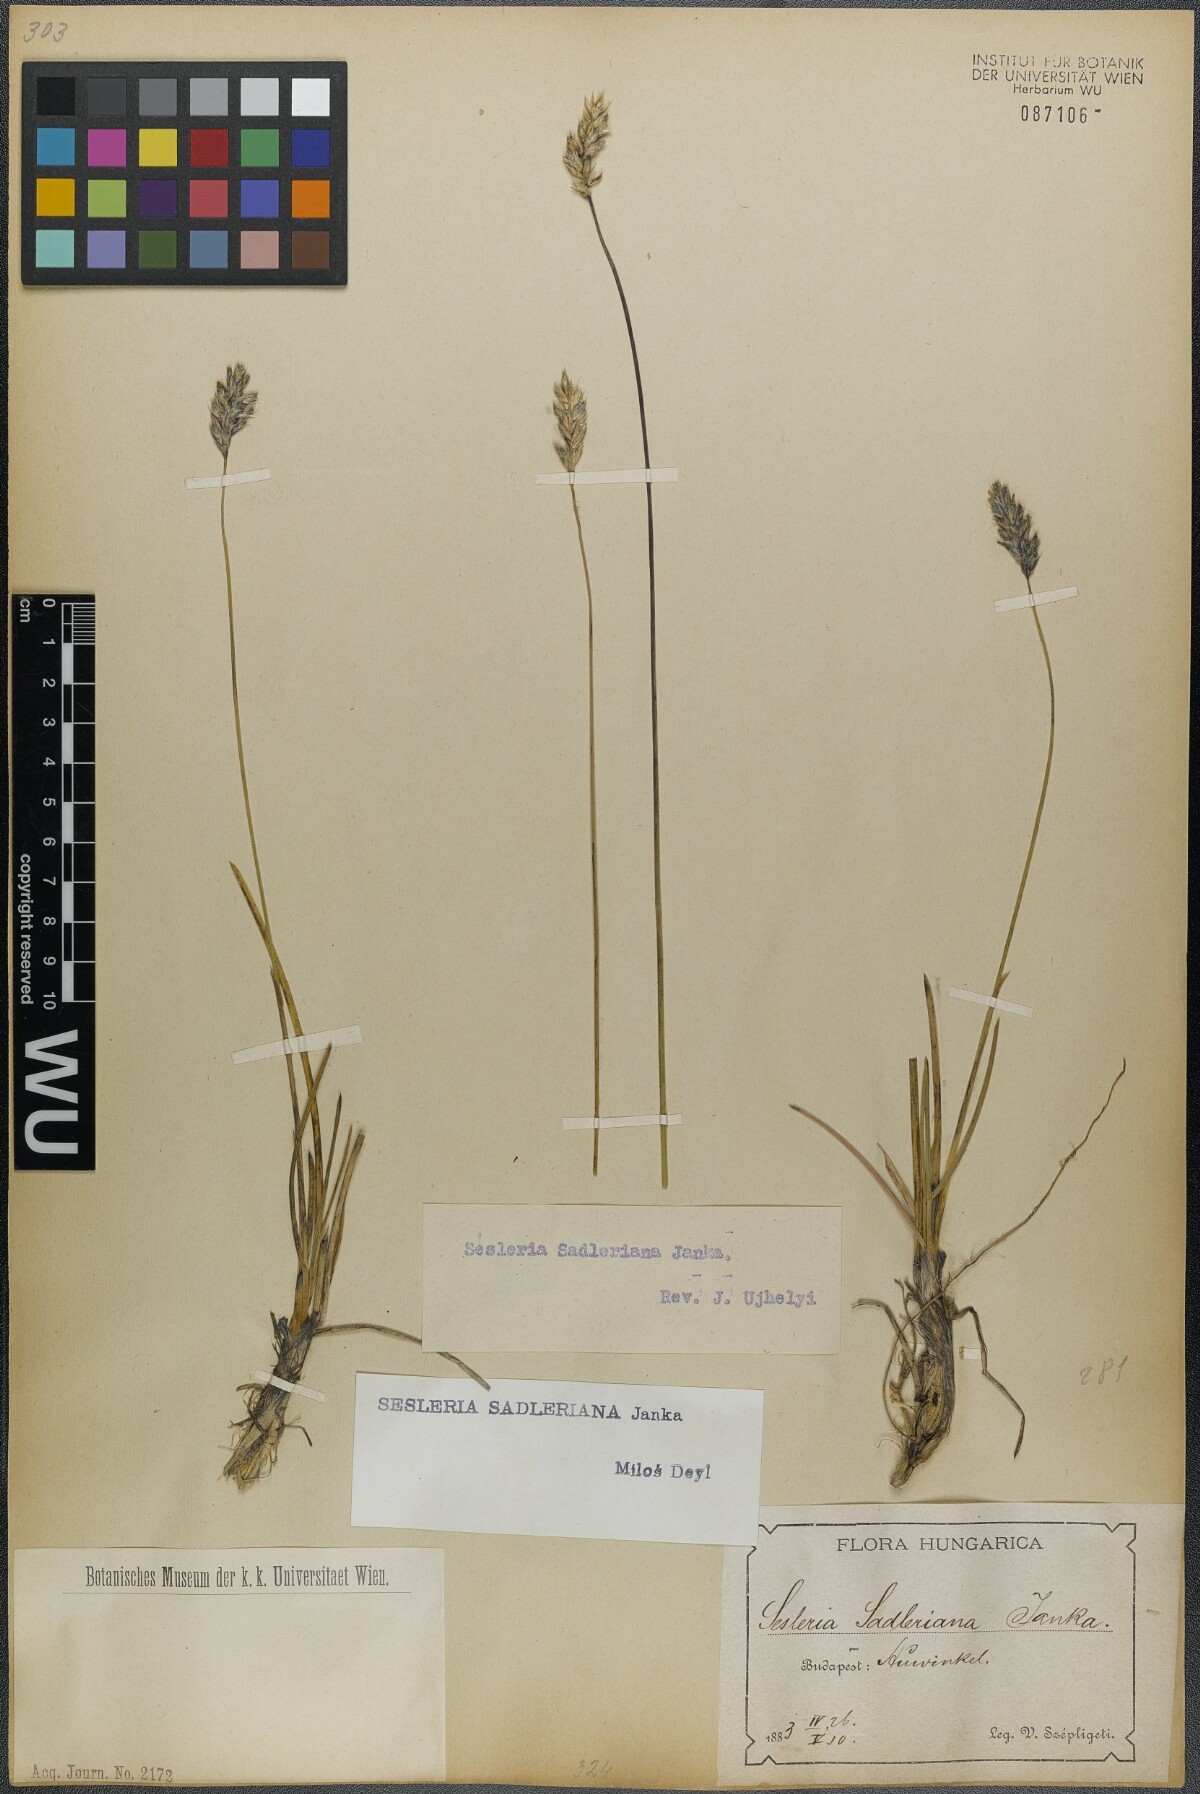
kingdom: Plantae
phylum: Tracheophyta
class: Liliopsida
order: Poales
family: Poaceae
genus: Sesleria
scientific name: Sesleria sadleriana
